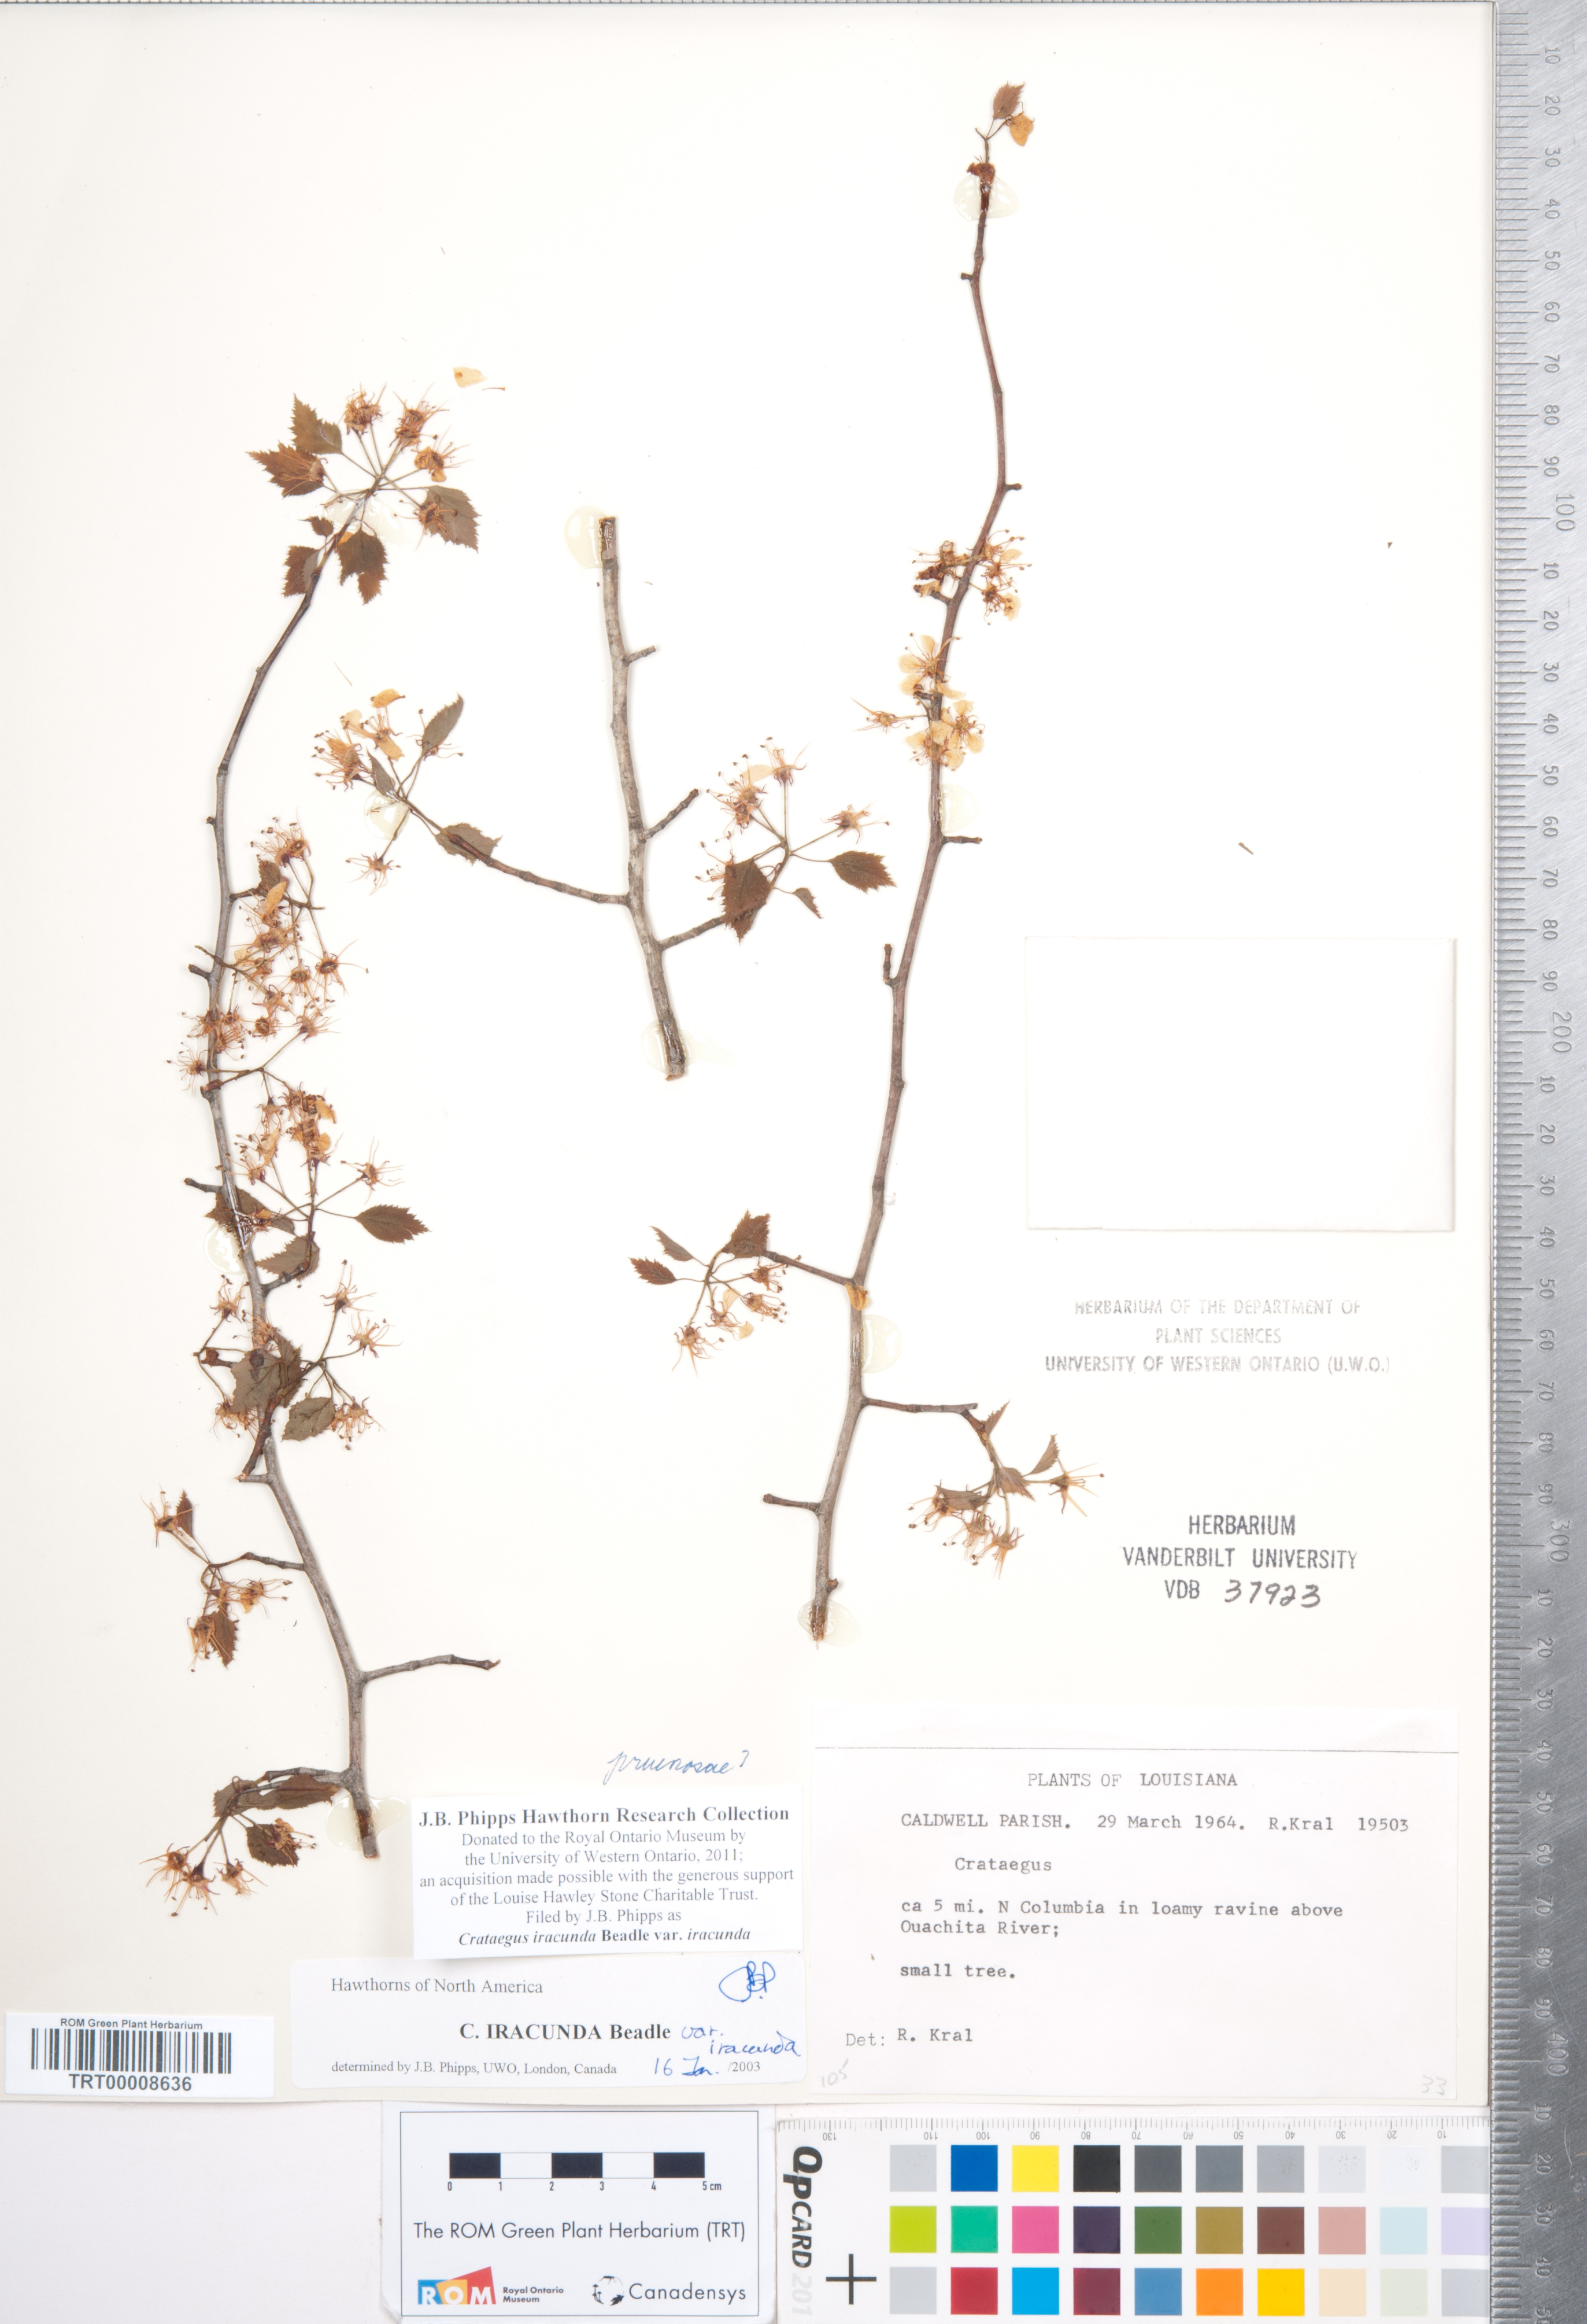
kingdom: Plantae
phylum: Tracheophyta
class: Magnoliopsida
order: Rosales
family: Rosaceae
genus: Crataegus
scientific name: Crataegus iracunda
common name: Stolon-bearing hawthorn
